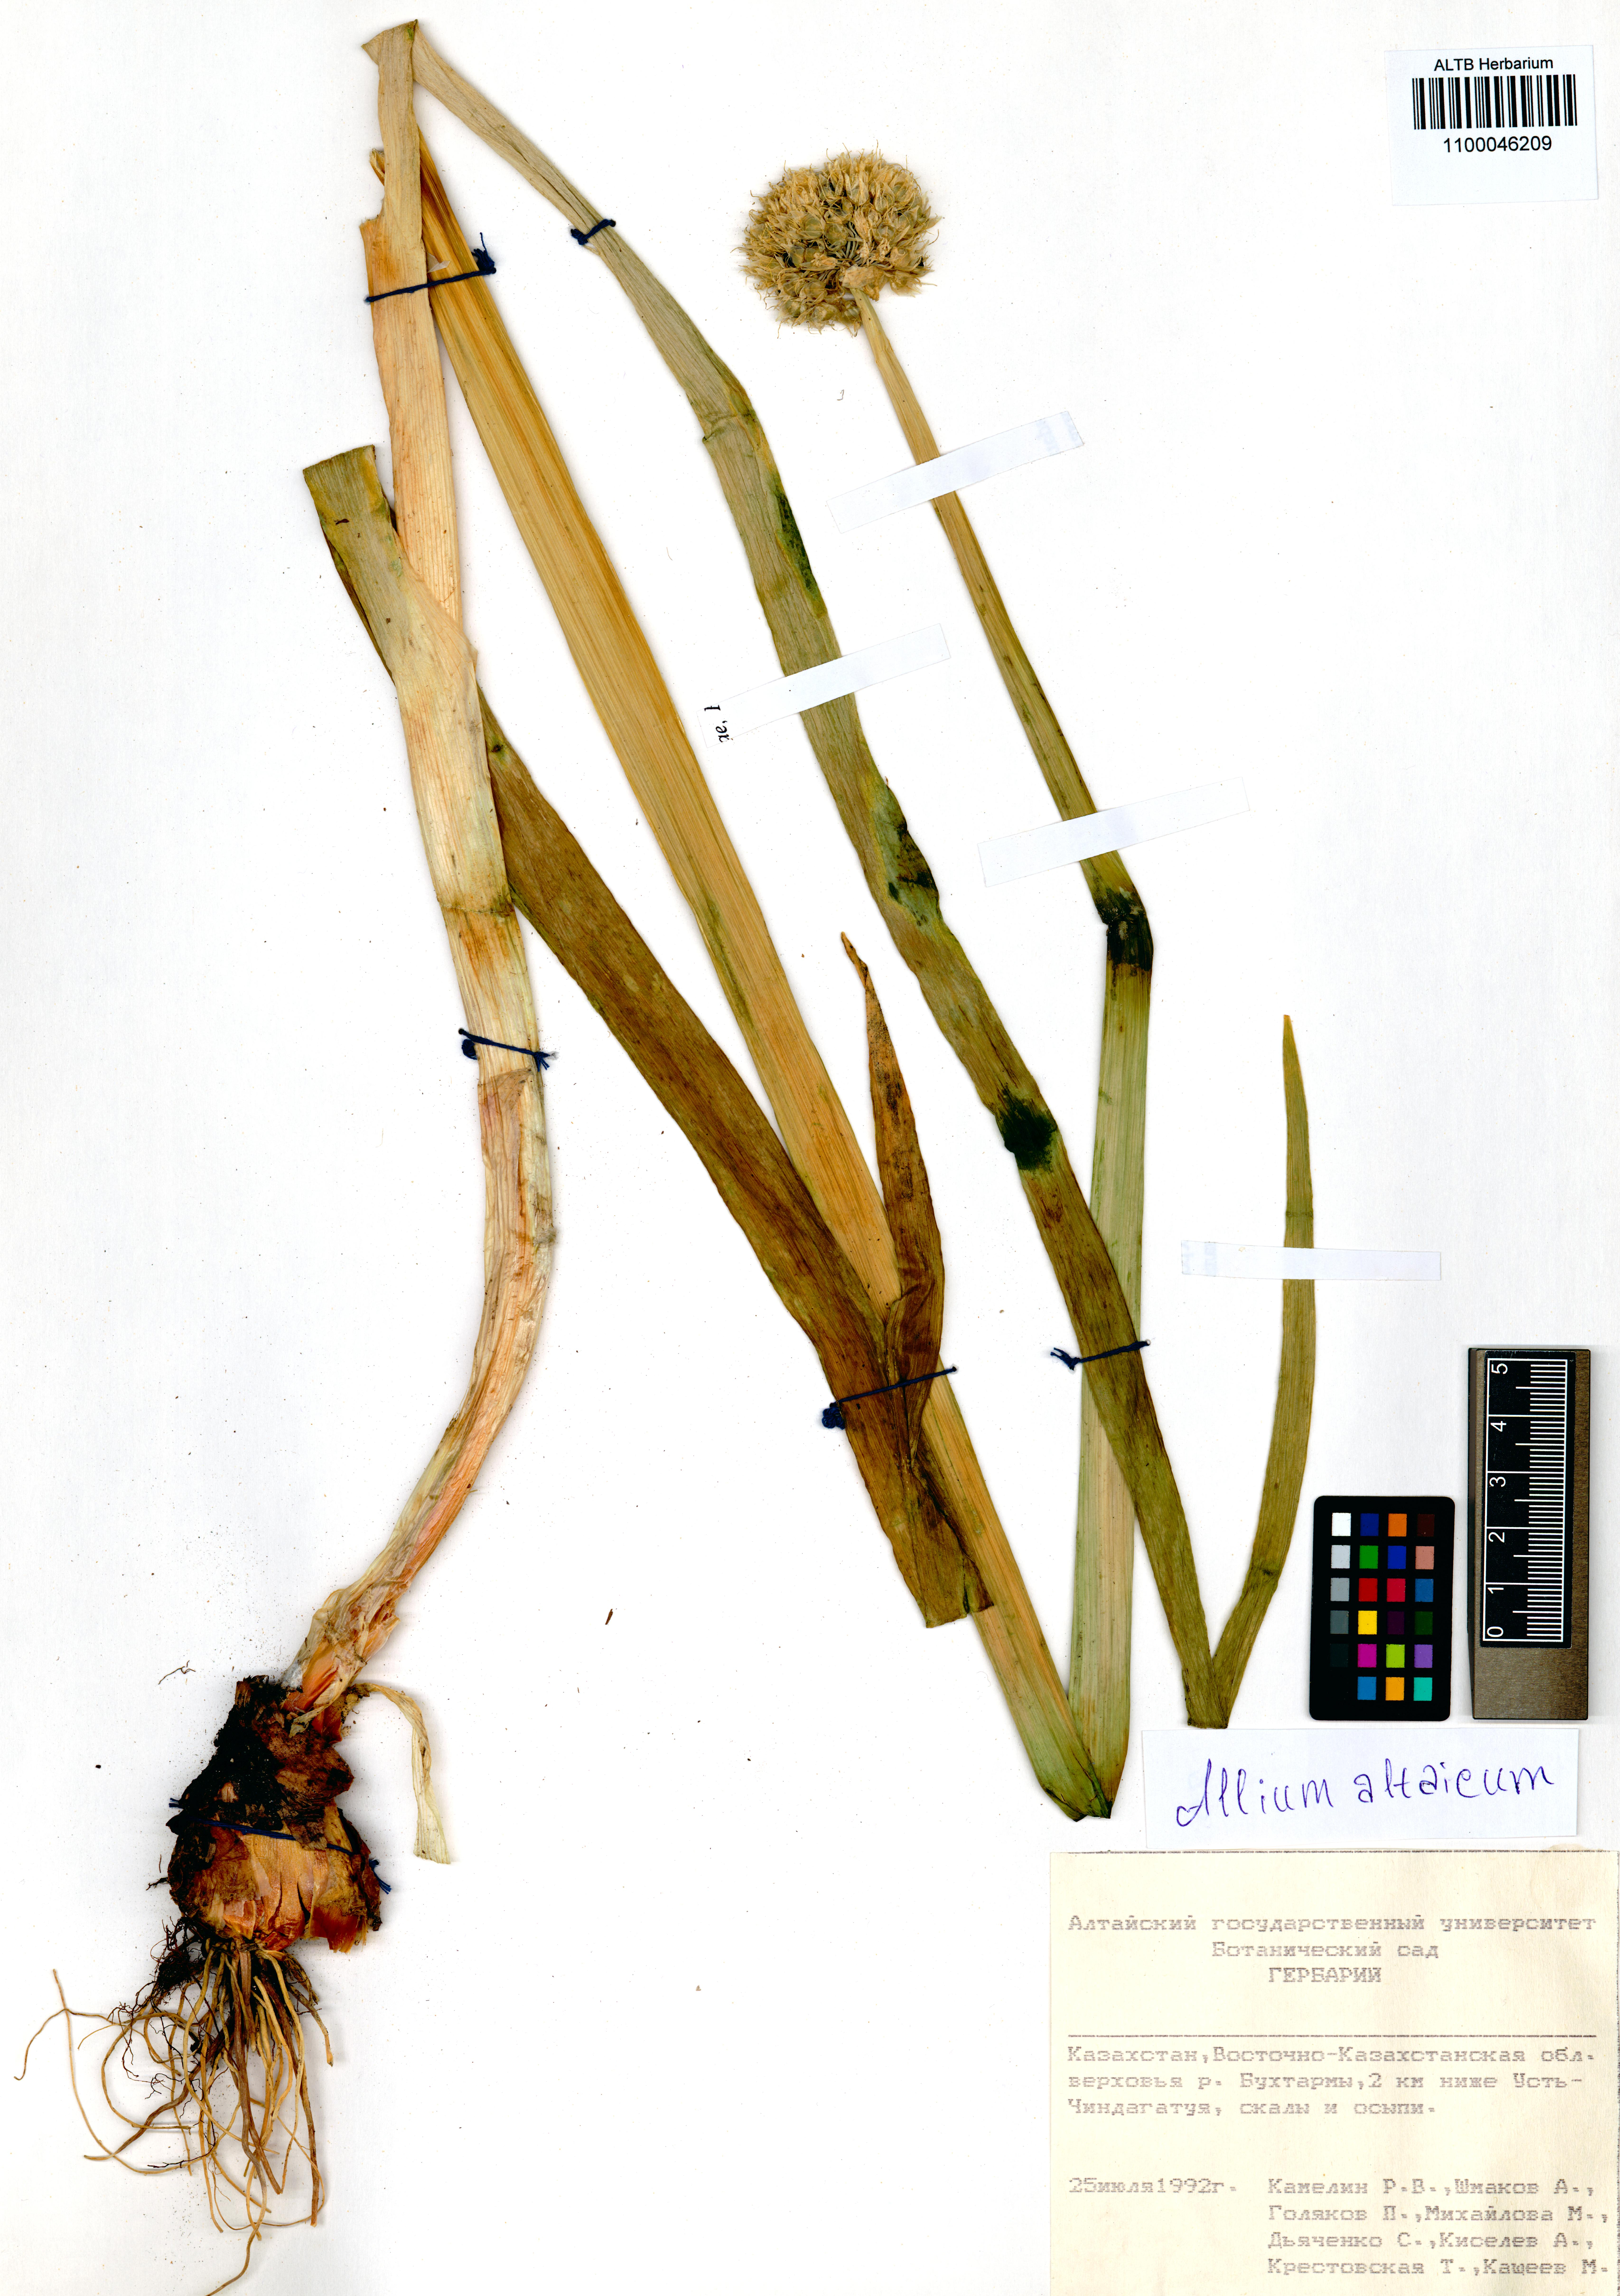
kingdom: Plantae
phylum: Tracheophyta
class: Liliopsida
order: Asparagales
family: Amaryllidaceae
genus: Allium
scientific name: Allium altaicum
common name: Altai onion
